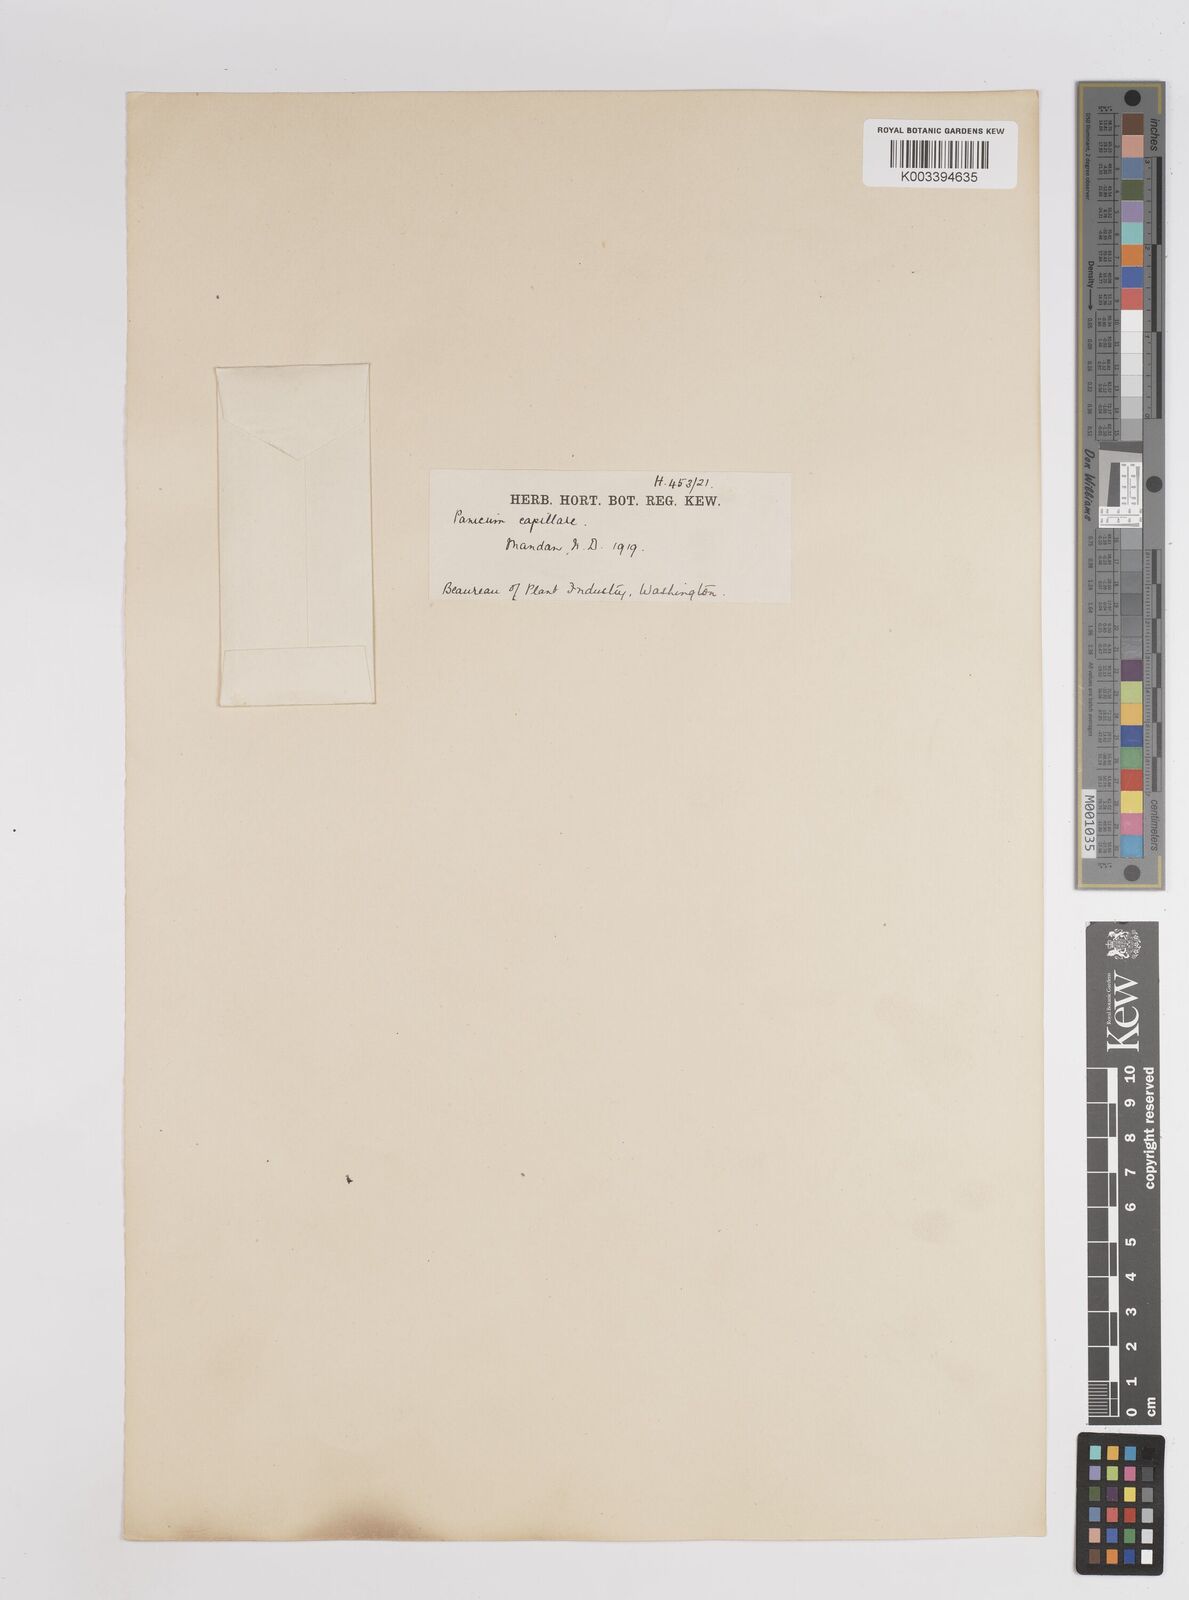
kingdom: Plantae
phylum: Tracheophyta
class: Liliopsida
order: Poales
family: Poaceae
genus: Panicum
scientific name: Panicum capillare
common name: Witch-grass
